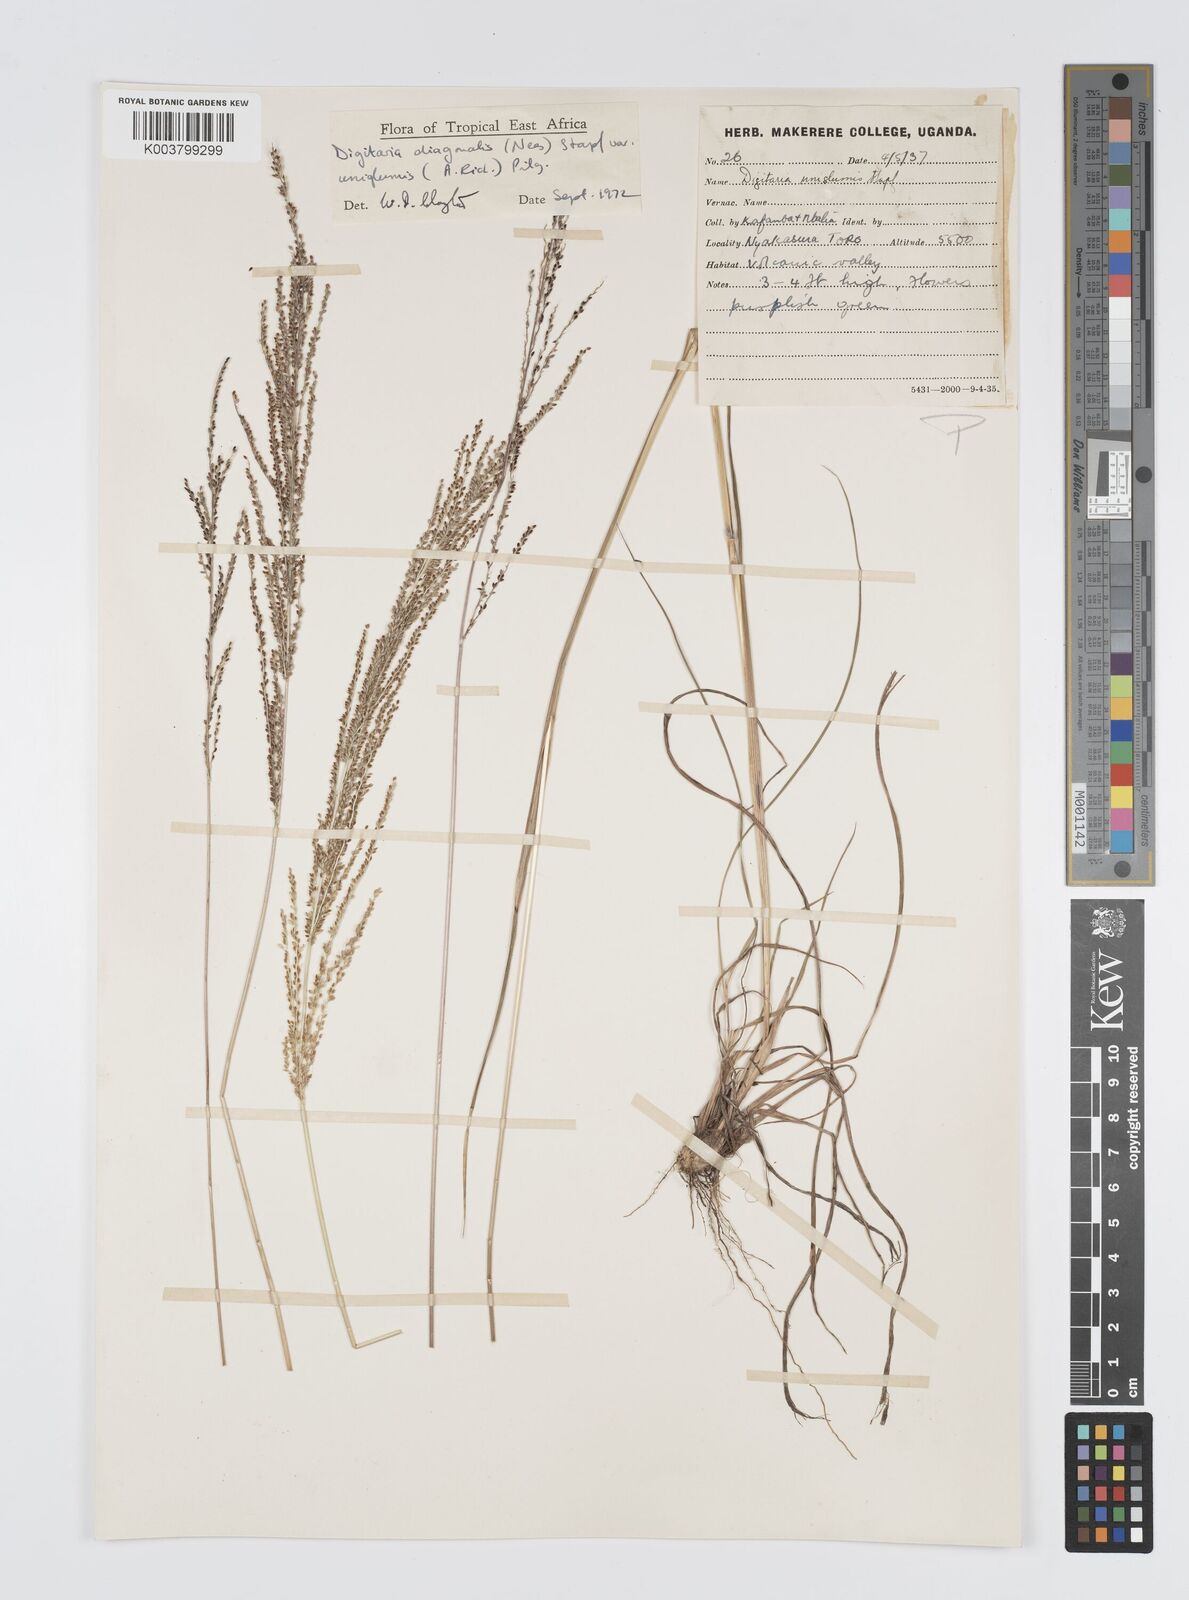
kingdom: Plantae
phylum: Tracheophyta
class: Liliopsida
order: Poales
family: Poaceae
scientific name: Poaceae
